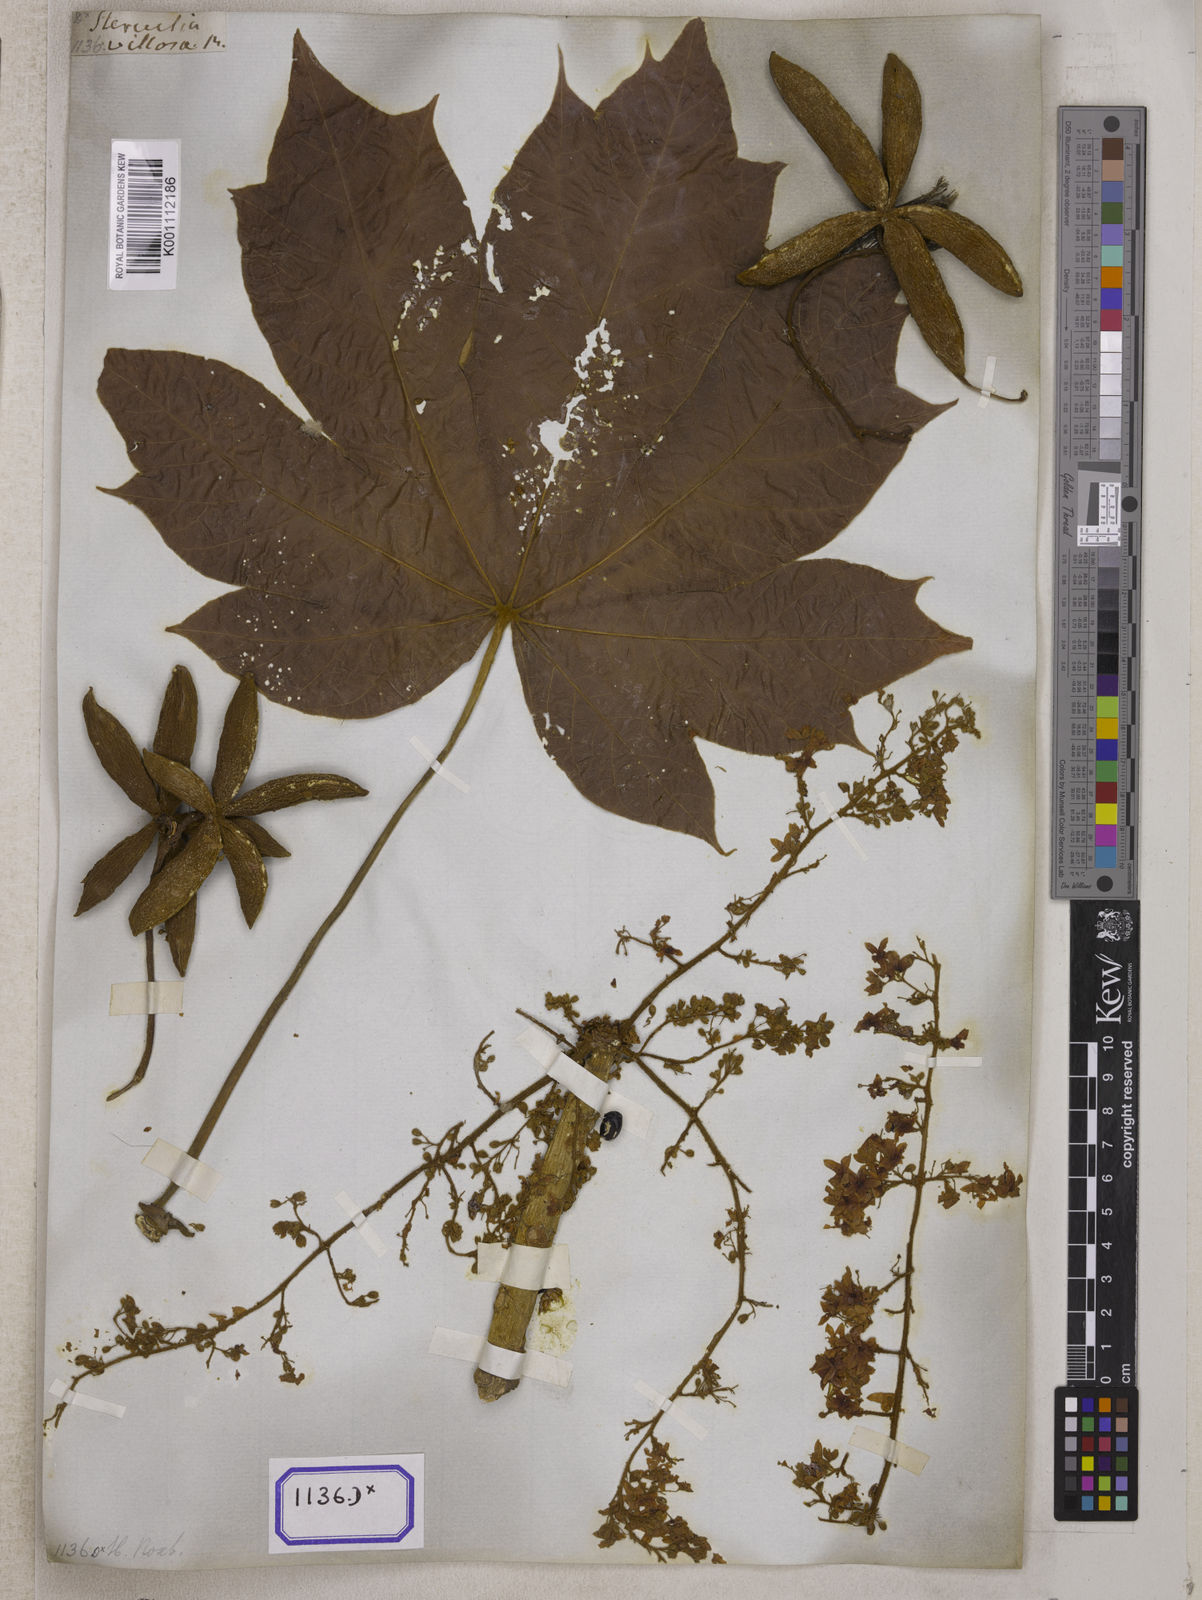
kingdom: Plantae
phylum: Tracheophyta
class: Magnoliopsida
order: Malvales
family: Malvaceae
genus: Sterculia
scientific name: Sterculia
